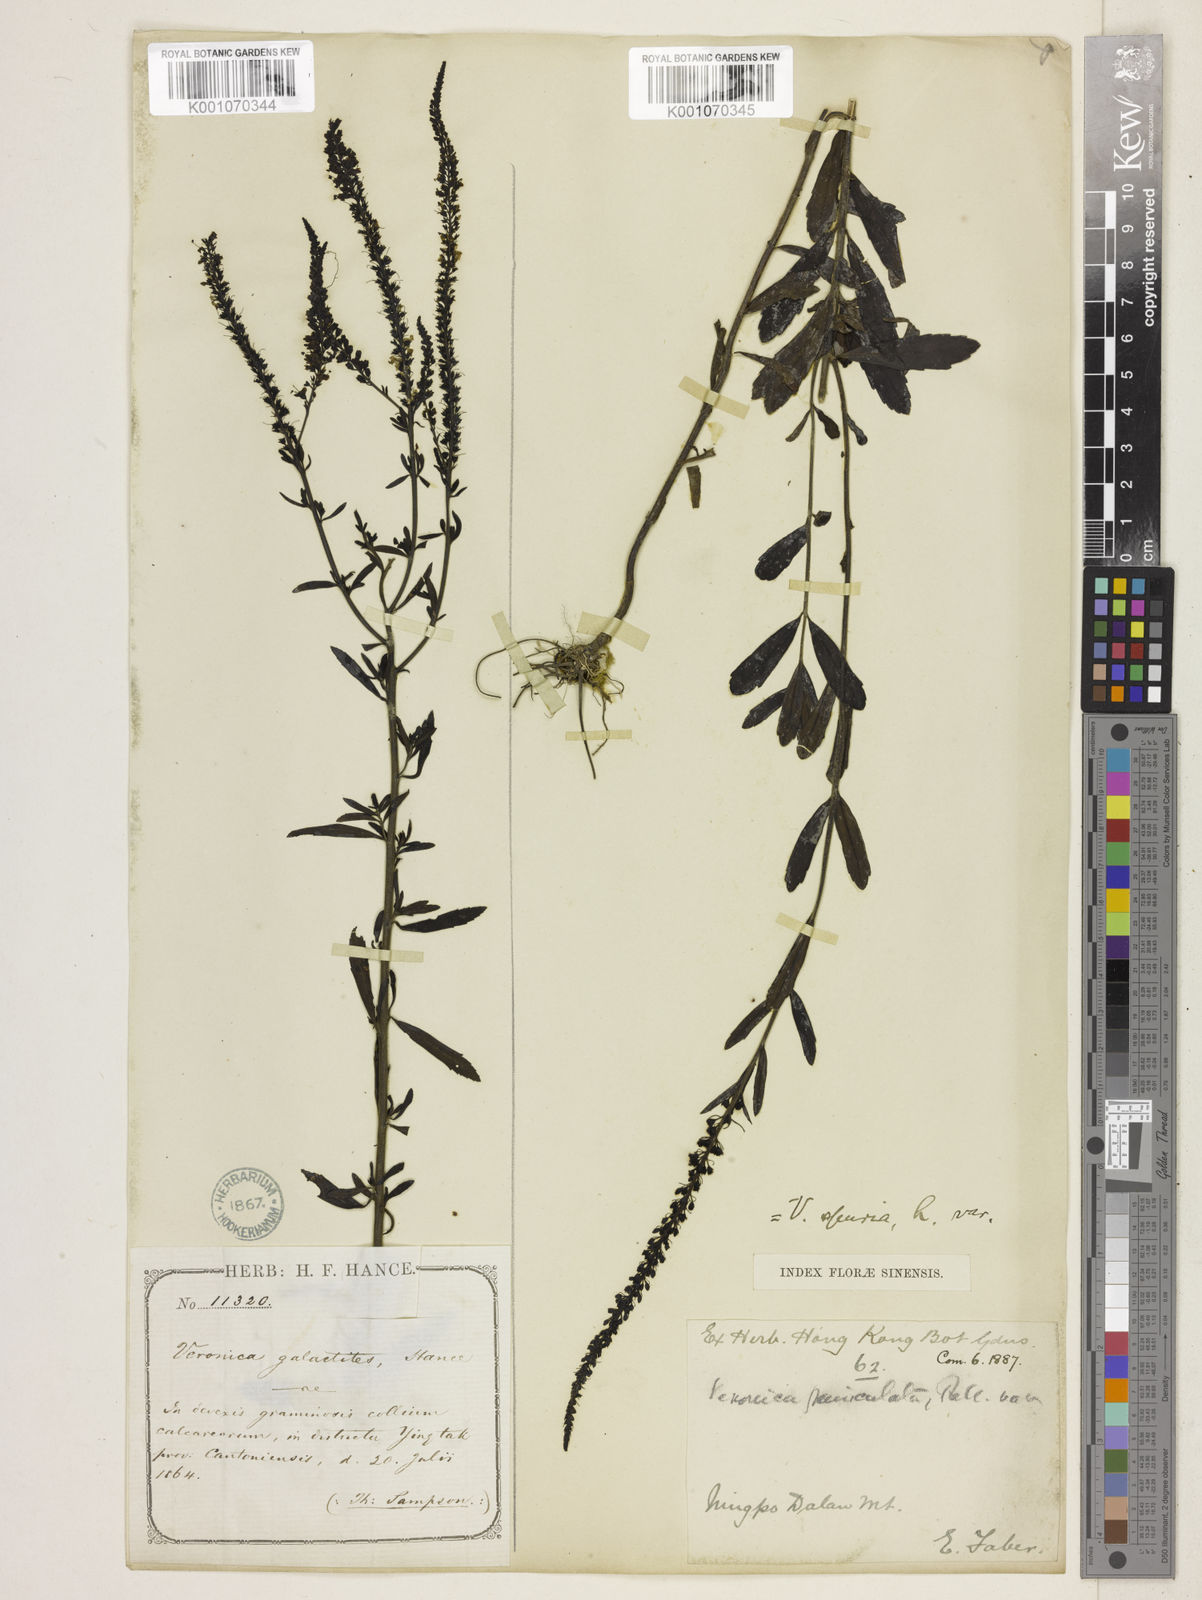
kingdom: Plantae
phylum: Tracheophyta
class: Magnoliopsida
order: Lamiales
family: Plantaginaceae
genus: Veronica
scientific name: Veronica spuria
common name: Bastard speedwell
